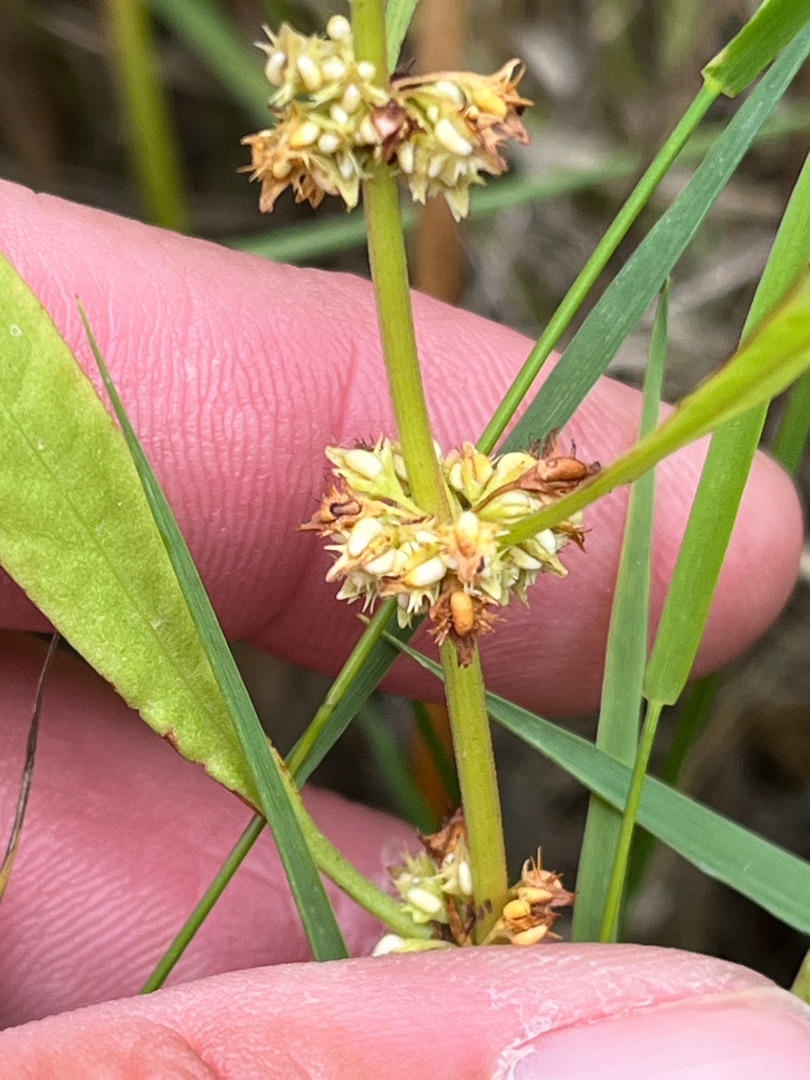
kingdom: Plantae
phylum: Tracheophyta
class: Magnoliopsida
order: Caryophyllales
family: Polygonaceae
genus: Rumex
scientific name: Rumex palustris
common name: Sump-skræppe
